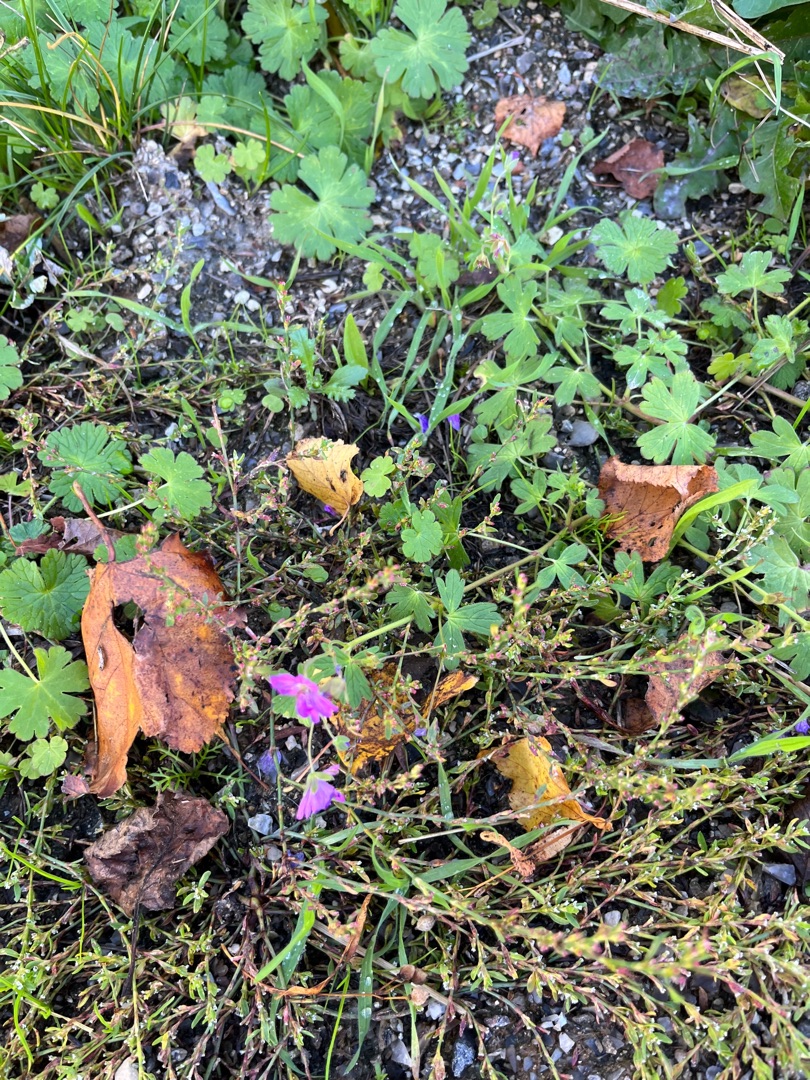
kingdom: Plantae
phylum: Tracheophyta
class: Magnoliopsida
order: Geraniales
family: Geraniaceae
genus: Geranium
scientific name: Geranium pyrenaicum
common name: Pyrenæisk storkenæb
